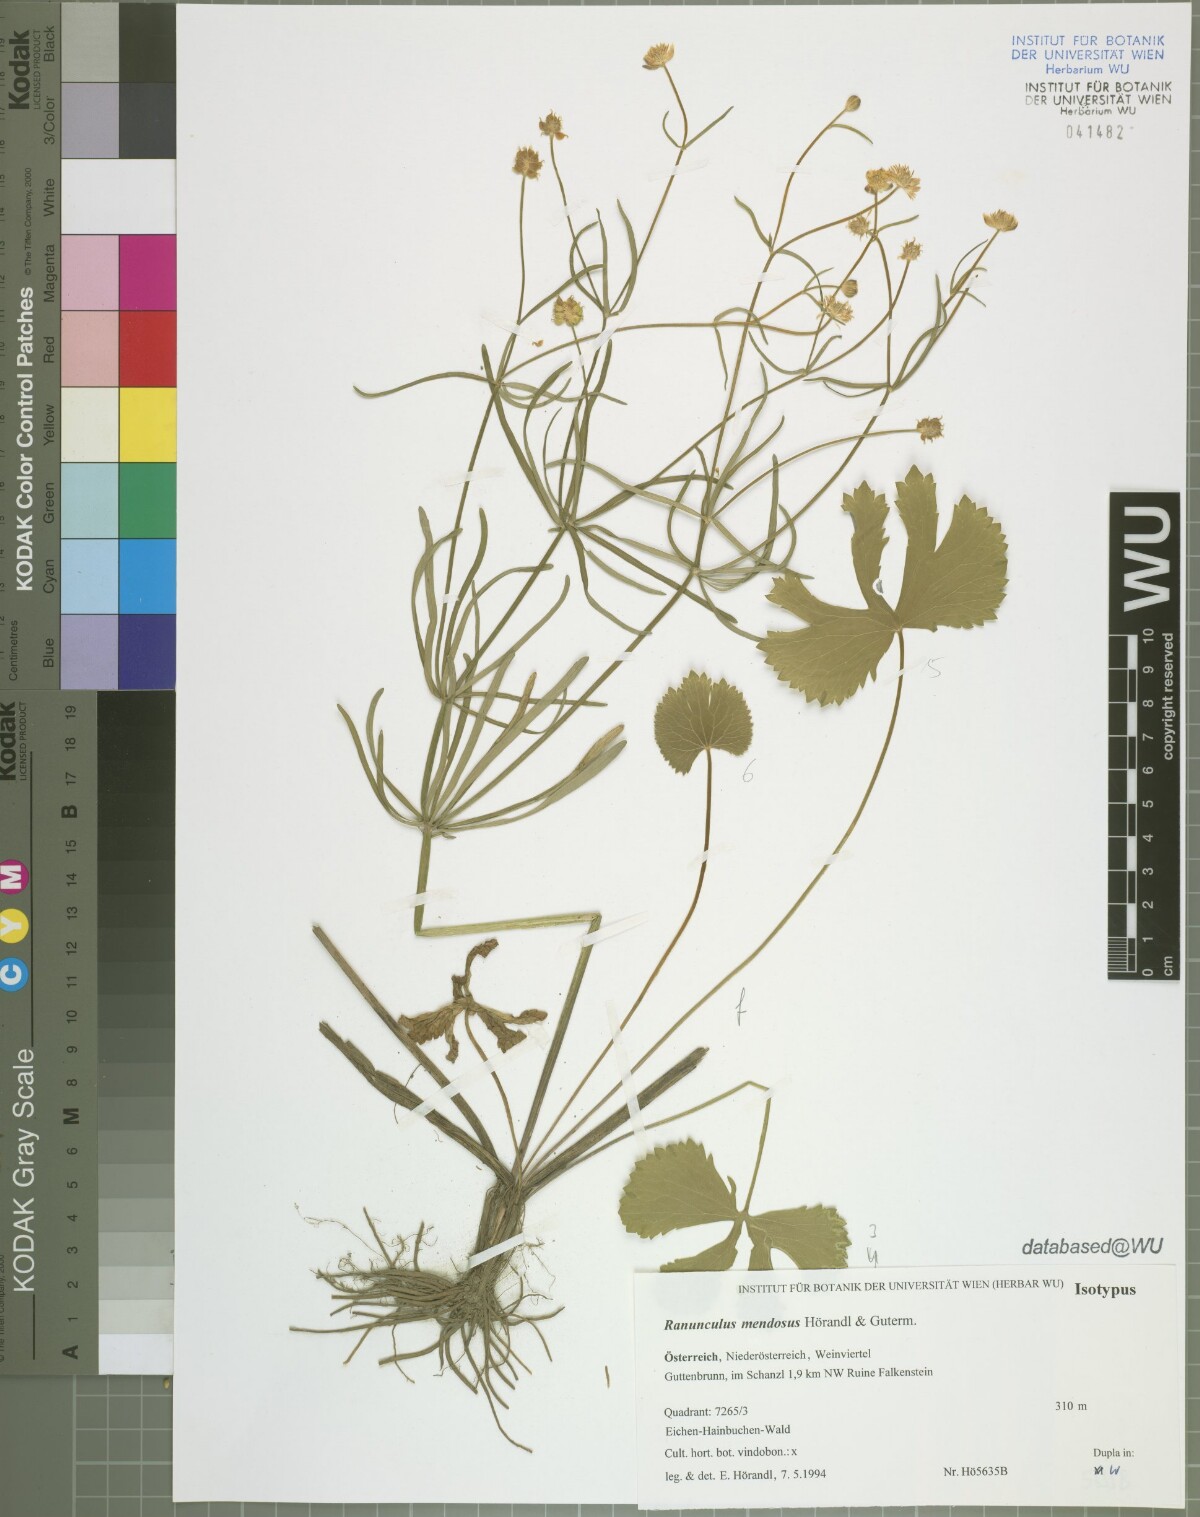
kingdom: Plantae
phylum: Tracheophyta
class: Magnoliopsida
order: Ranunculales
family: Ranunculaceae
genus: Ranunculus
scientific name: Ranunculus mendosus
